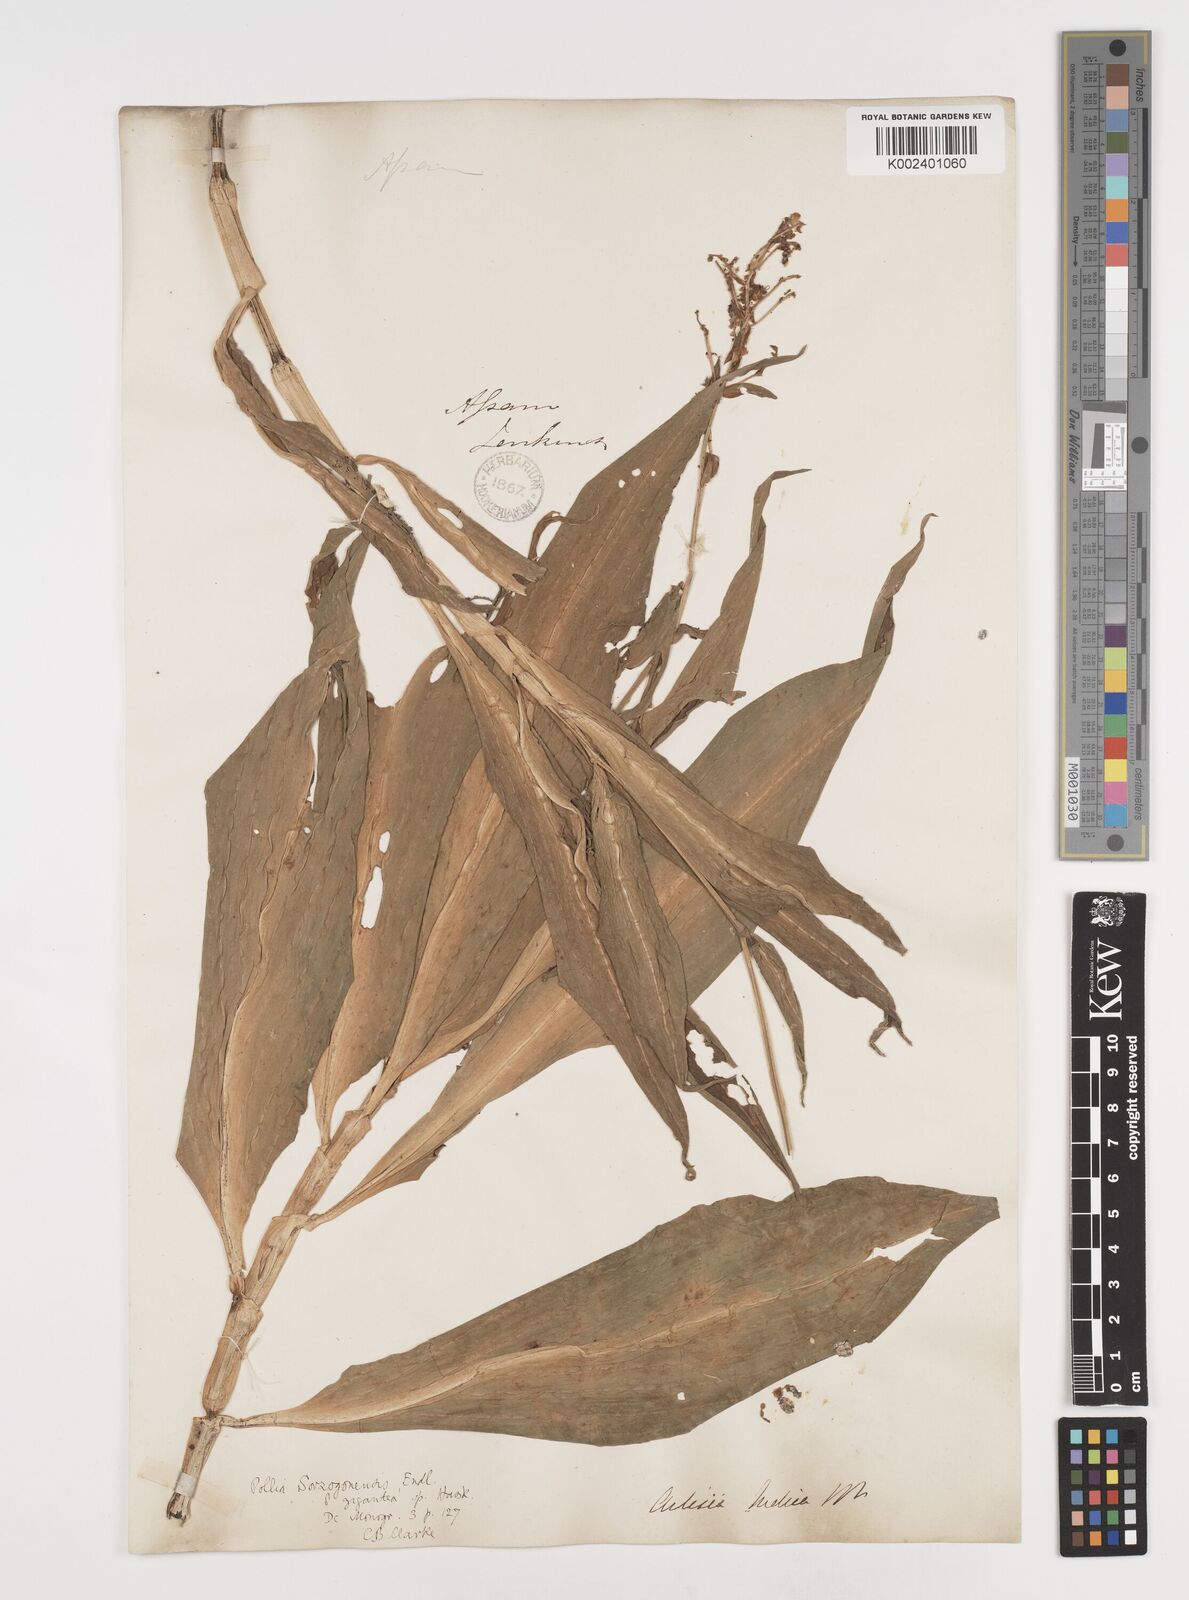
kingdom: Plantae
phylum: Tracheophyta
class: Liliopsida
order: Commelinales
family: Commelinaceae
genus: Pollia
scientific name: Pollia secundiflora
